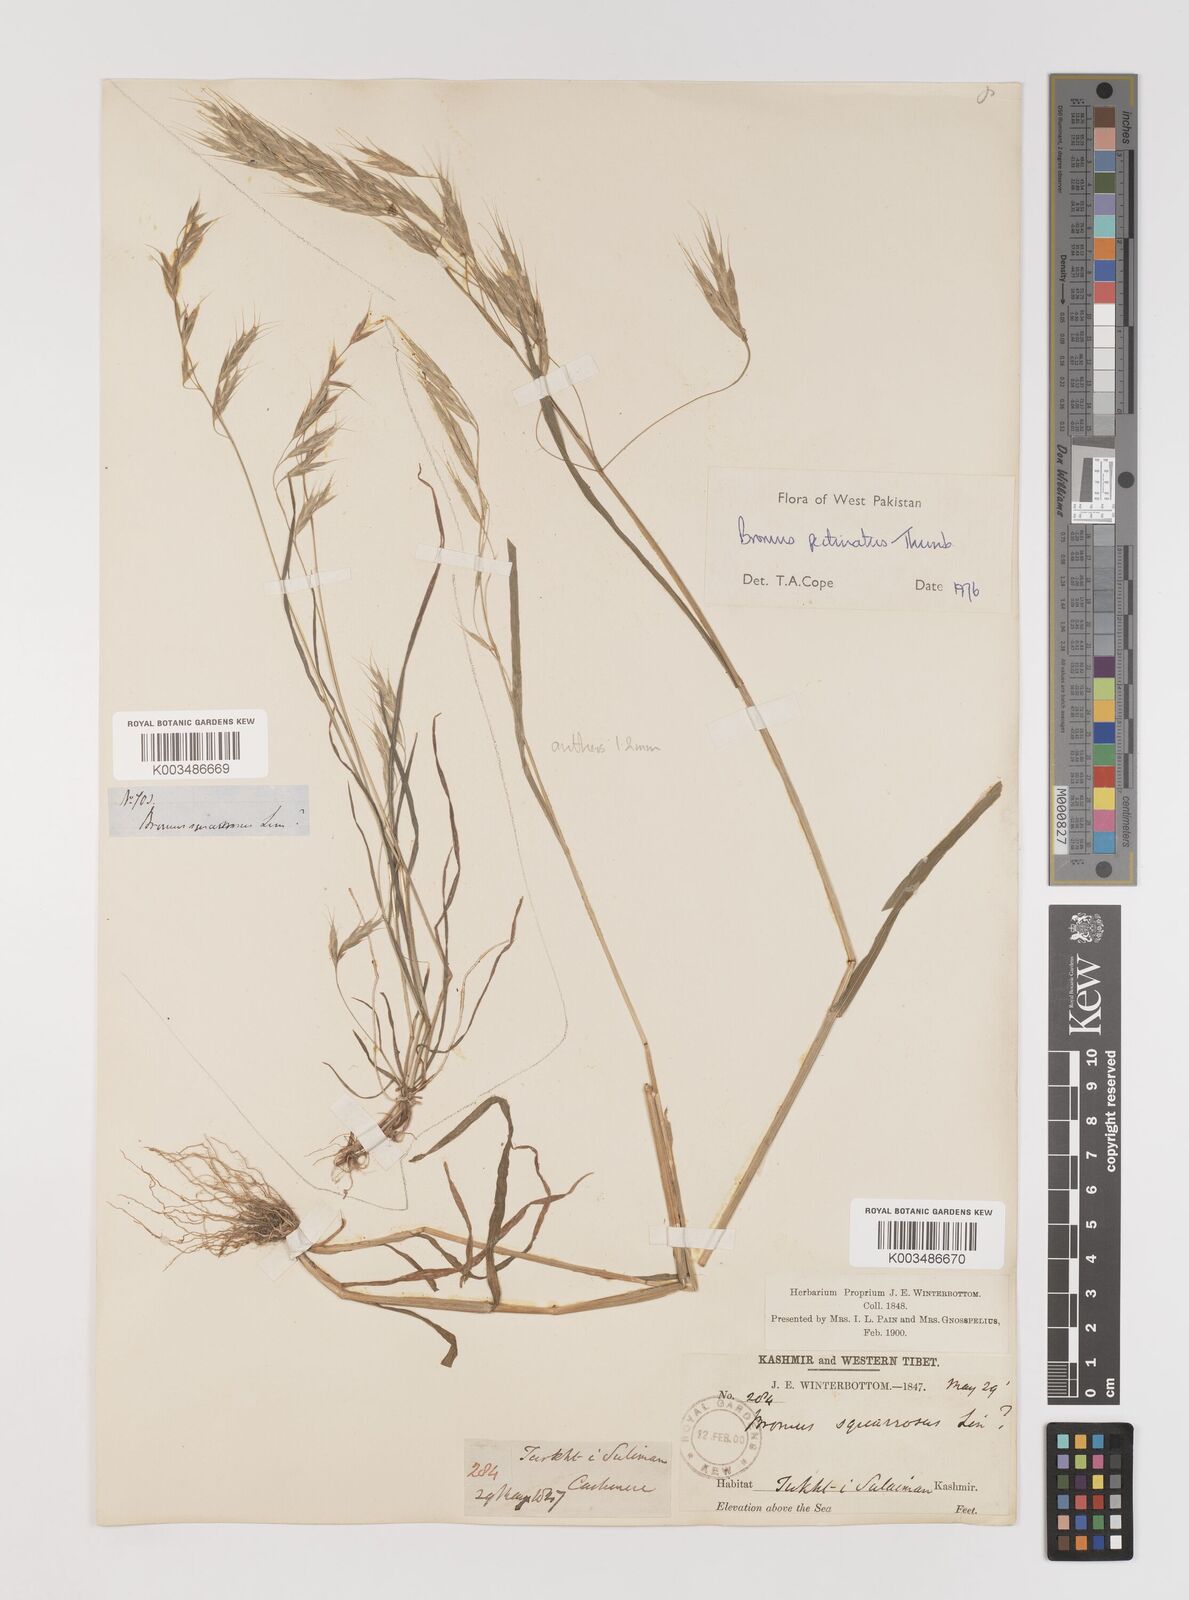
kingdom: Plantae
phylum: Tracheophyta
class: Liliopsida
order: Poales
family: Poaceae
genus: Bromus
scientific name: Bromus pectinatus
